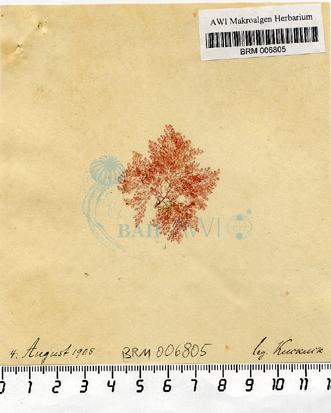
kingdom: Plantae
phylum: Rhodophyta
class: Florideophyceae
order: Ceramiales
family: Callithamniaceae
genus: Callithamnion
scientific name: Callithamnion corymbosum
